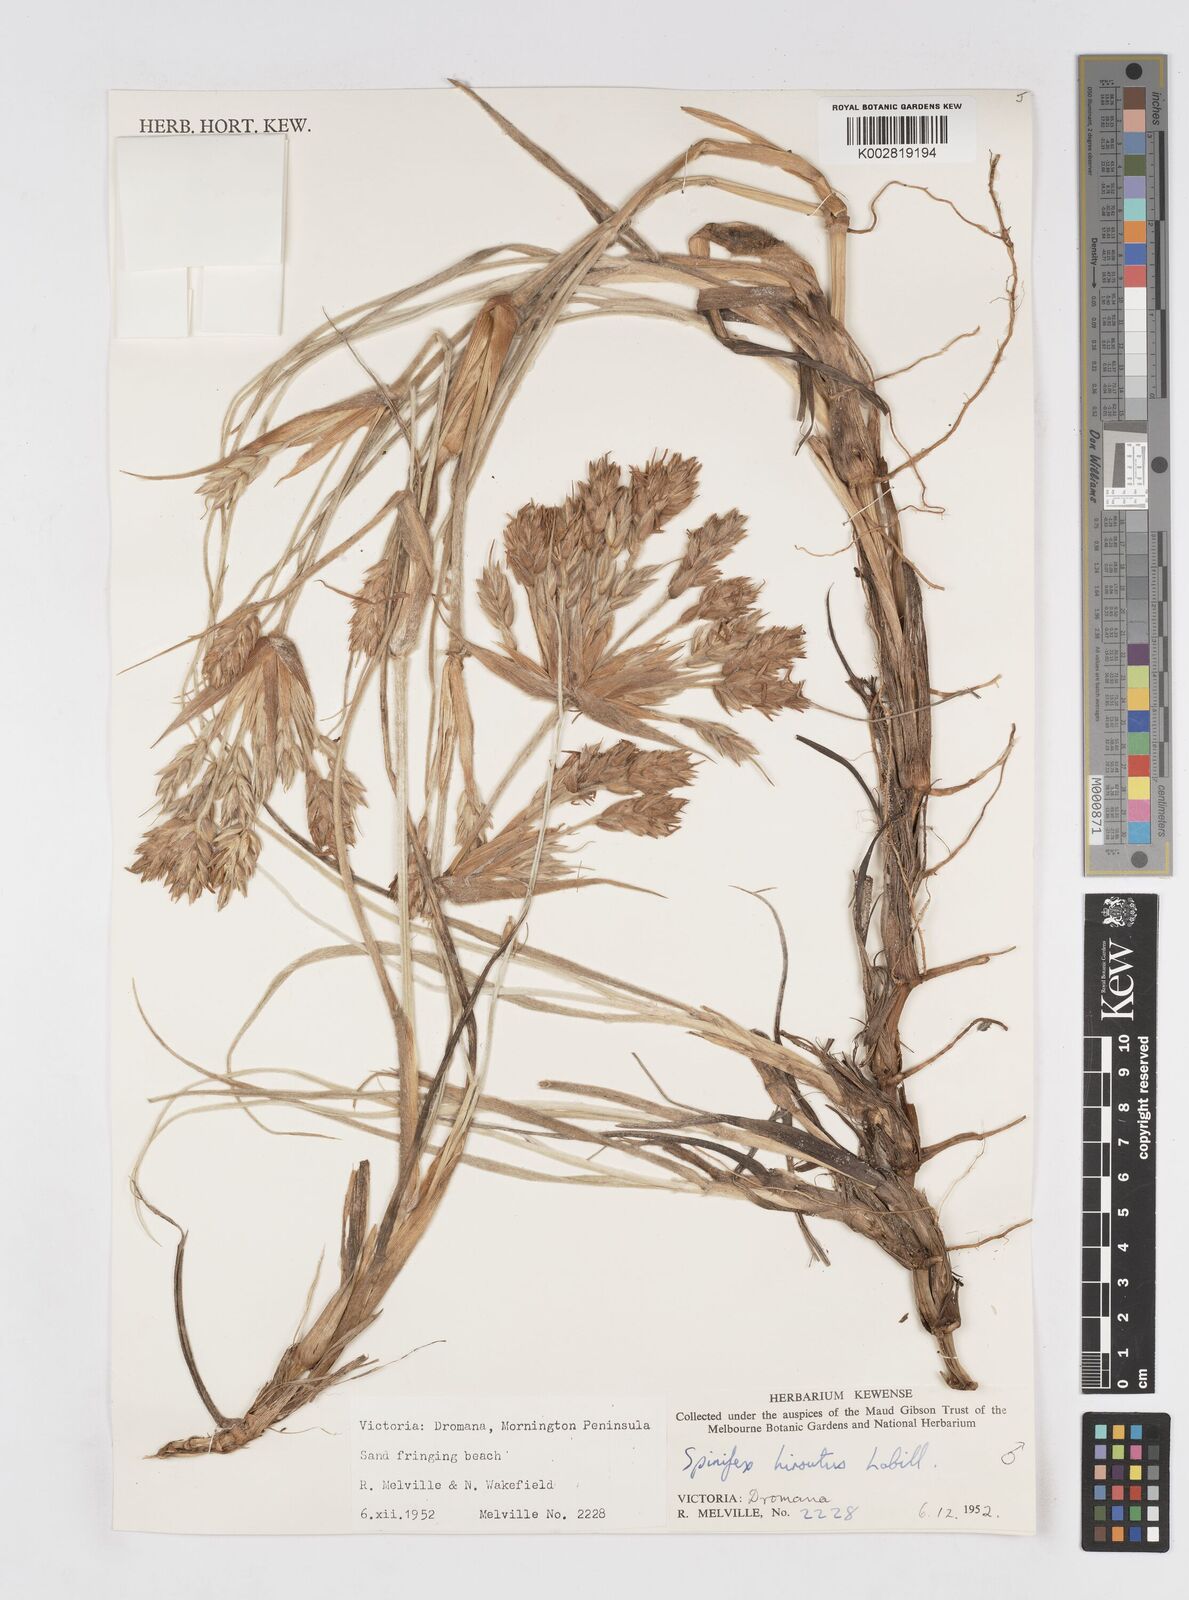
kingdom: Plantae
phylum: Tracheophyta
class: Liliopsida
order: Poales
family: Poaceae
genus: Spinifex
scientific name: Spinifex sericeus
